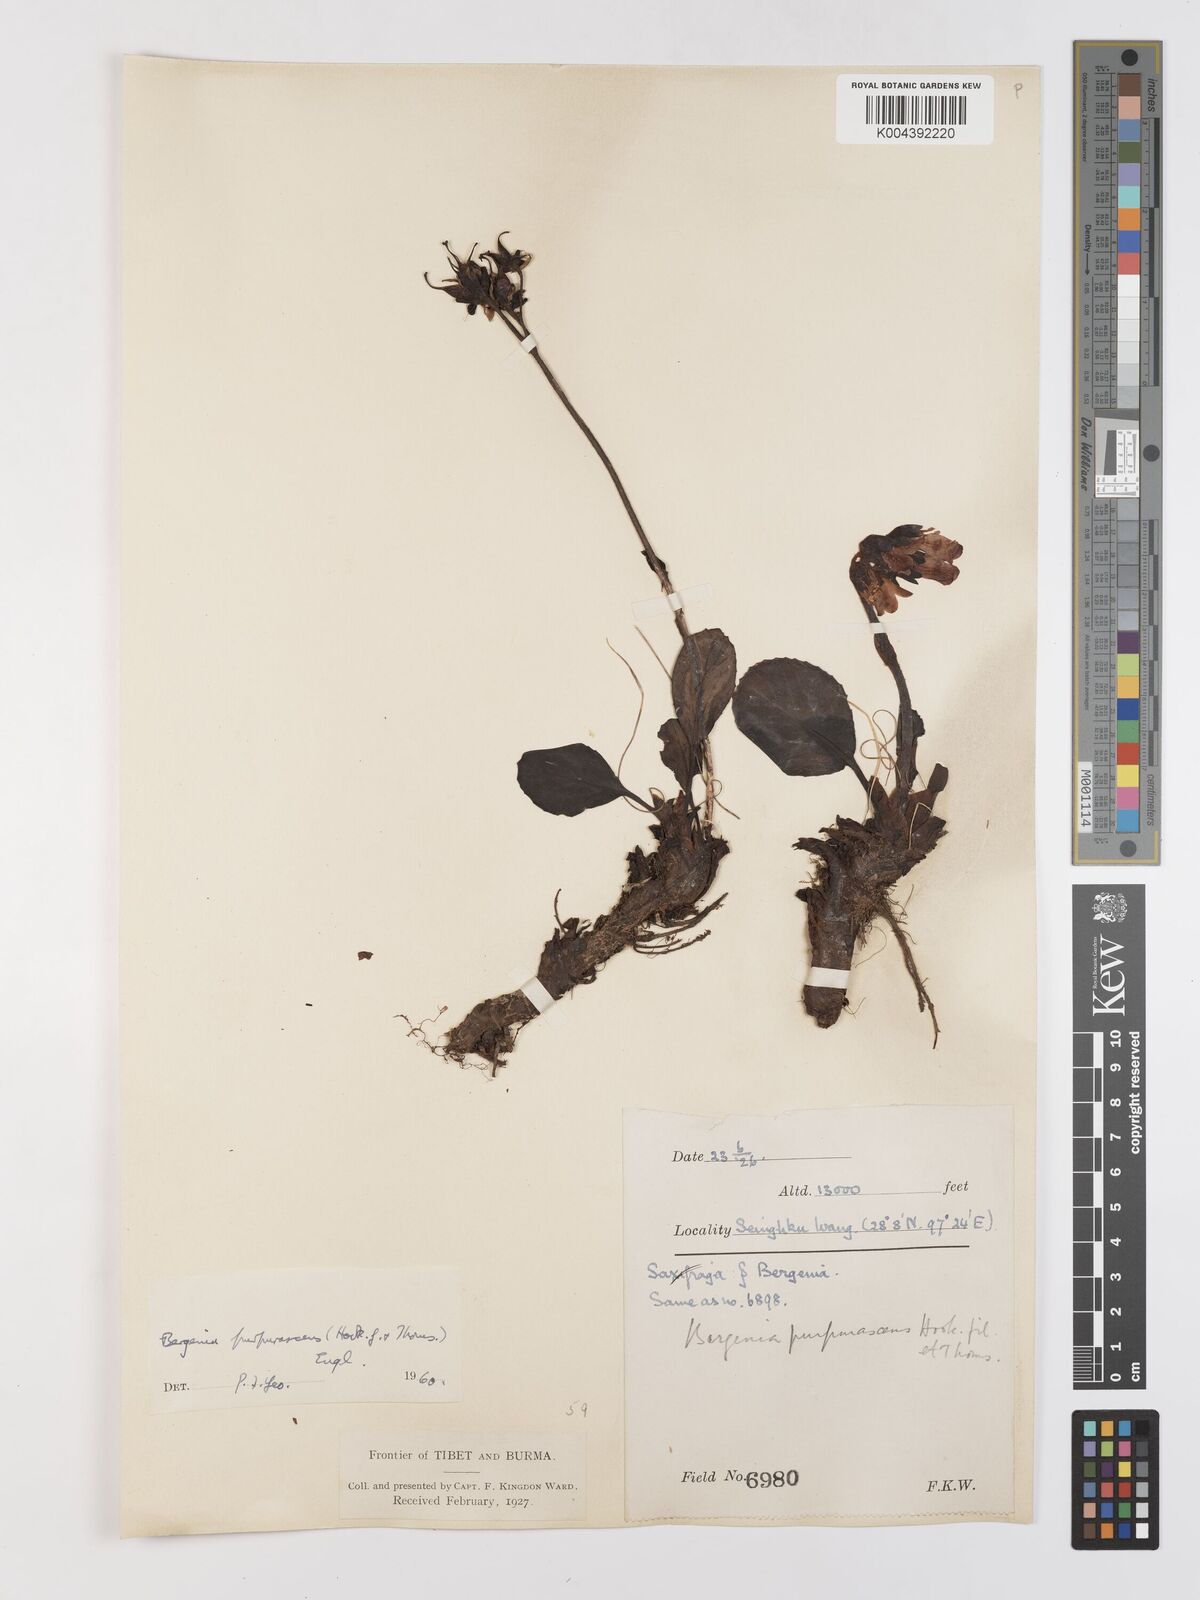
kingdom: Plantae
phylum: Tracheophyta
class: Magnoliopsida
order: Saxifragales
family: Saxifragaceae
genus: Bergenia
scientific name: Bergenia purpurascens
